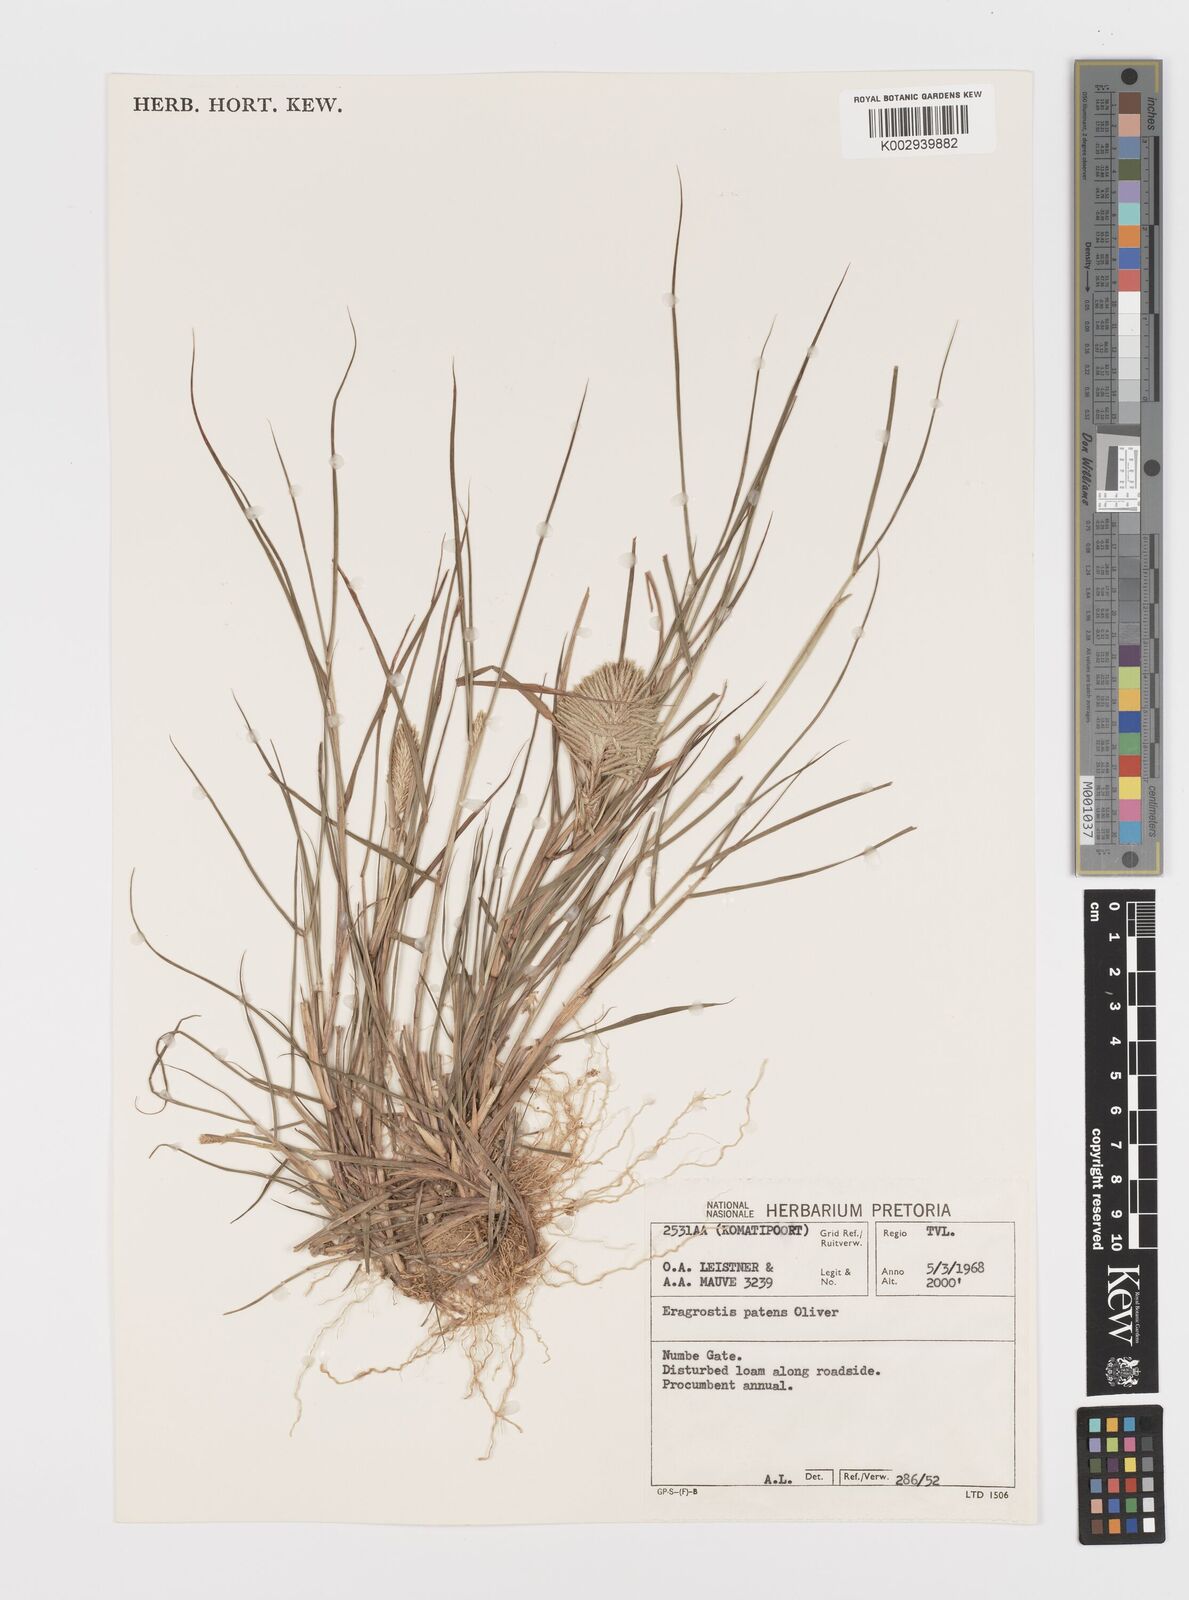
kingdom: Plantae
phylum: Tracheophyta
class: Liliopsida
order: Poales
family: Poaceae
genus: Eragrostis
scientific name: Eragrostis patens
